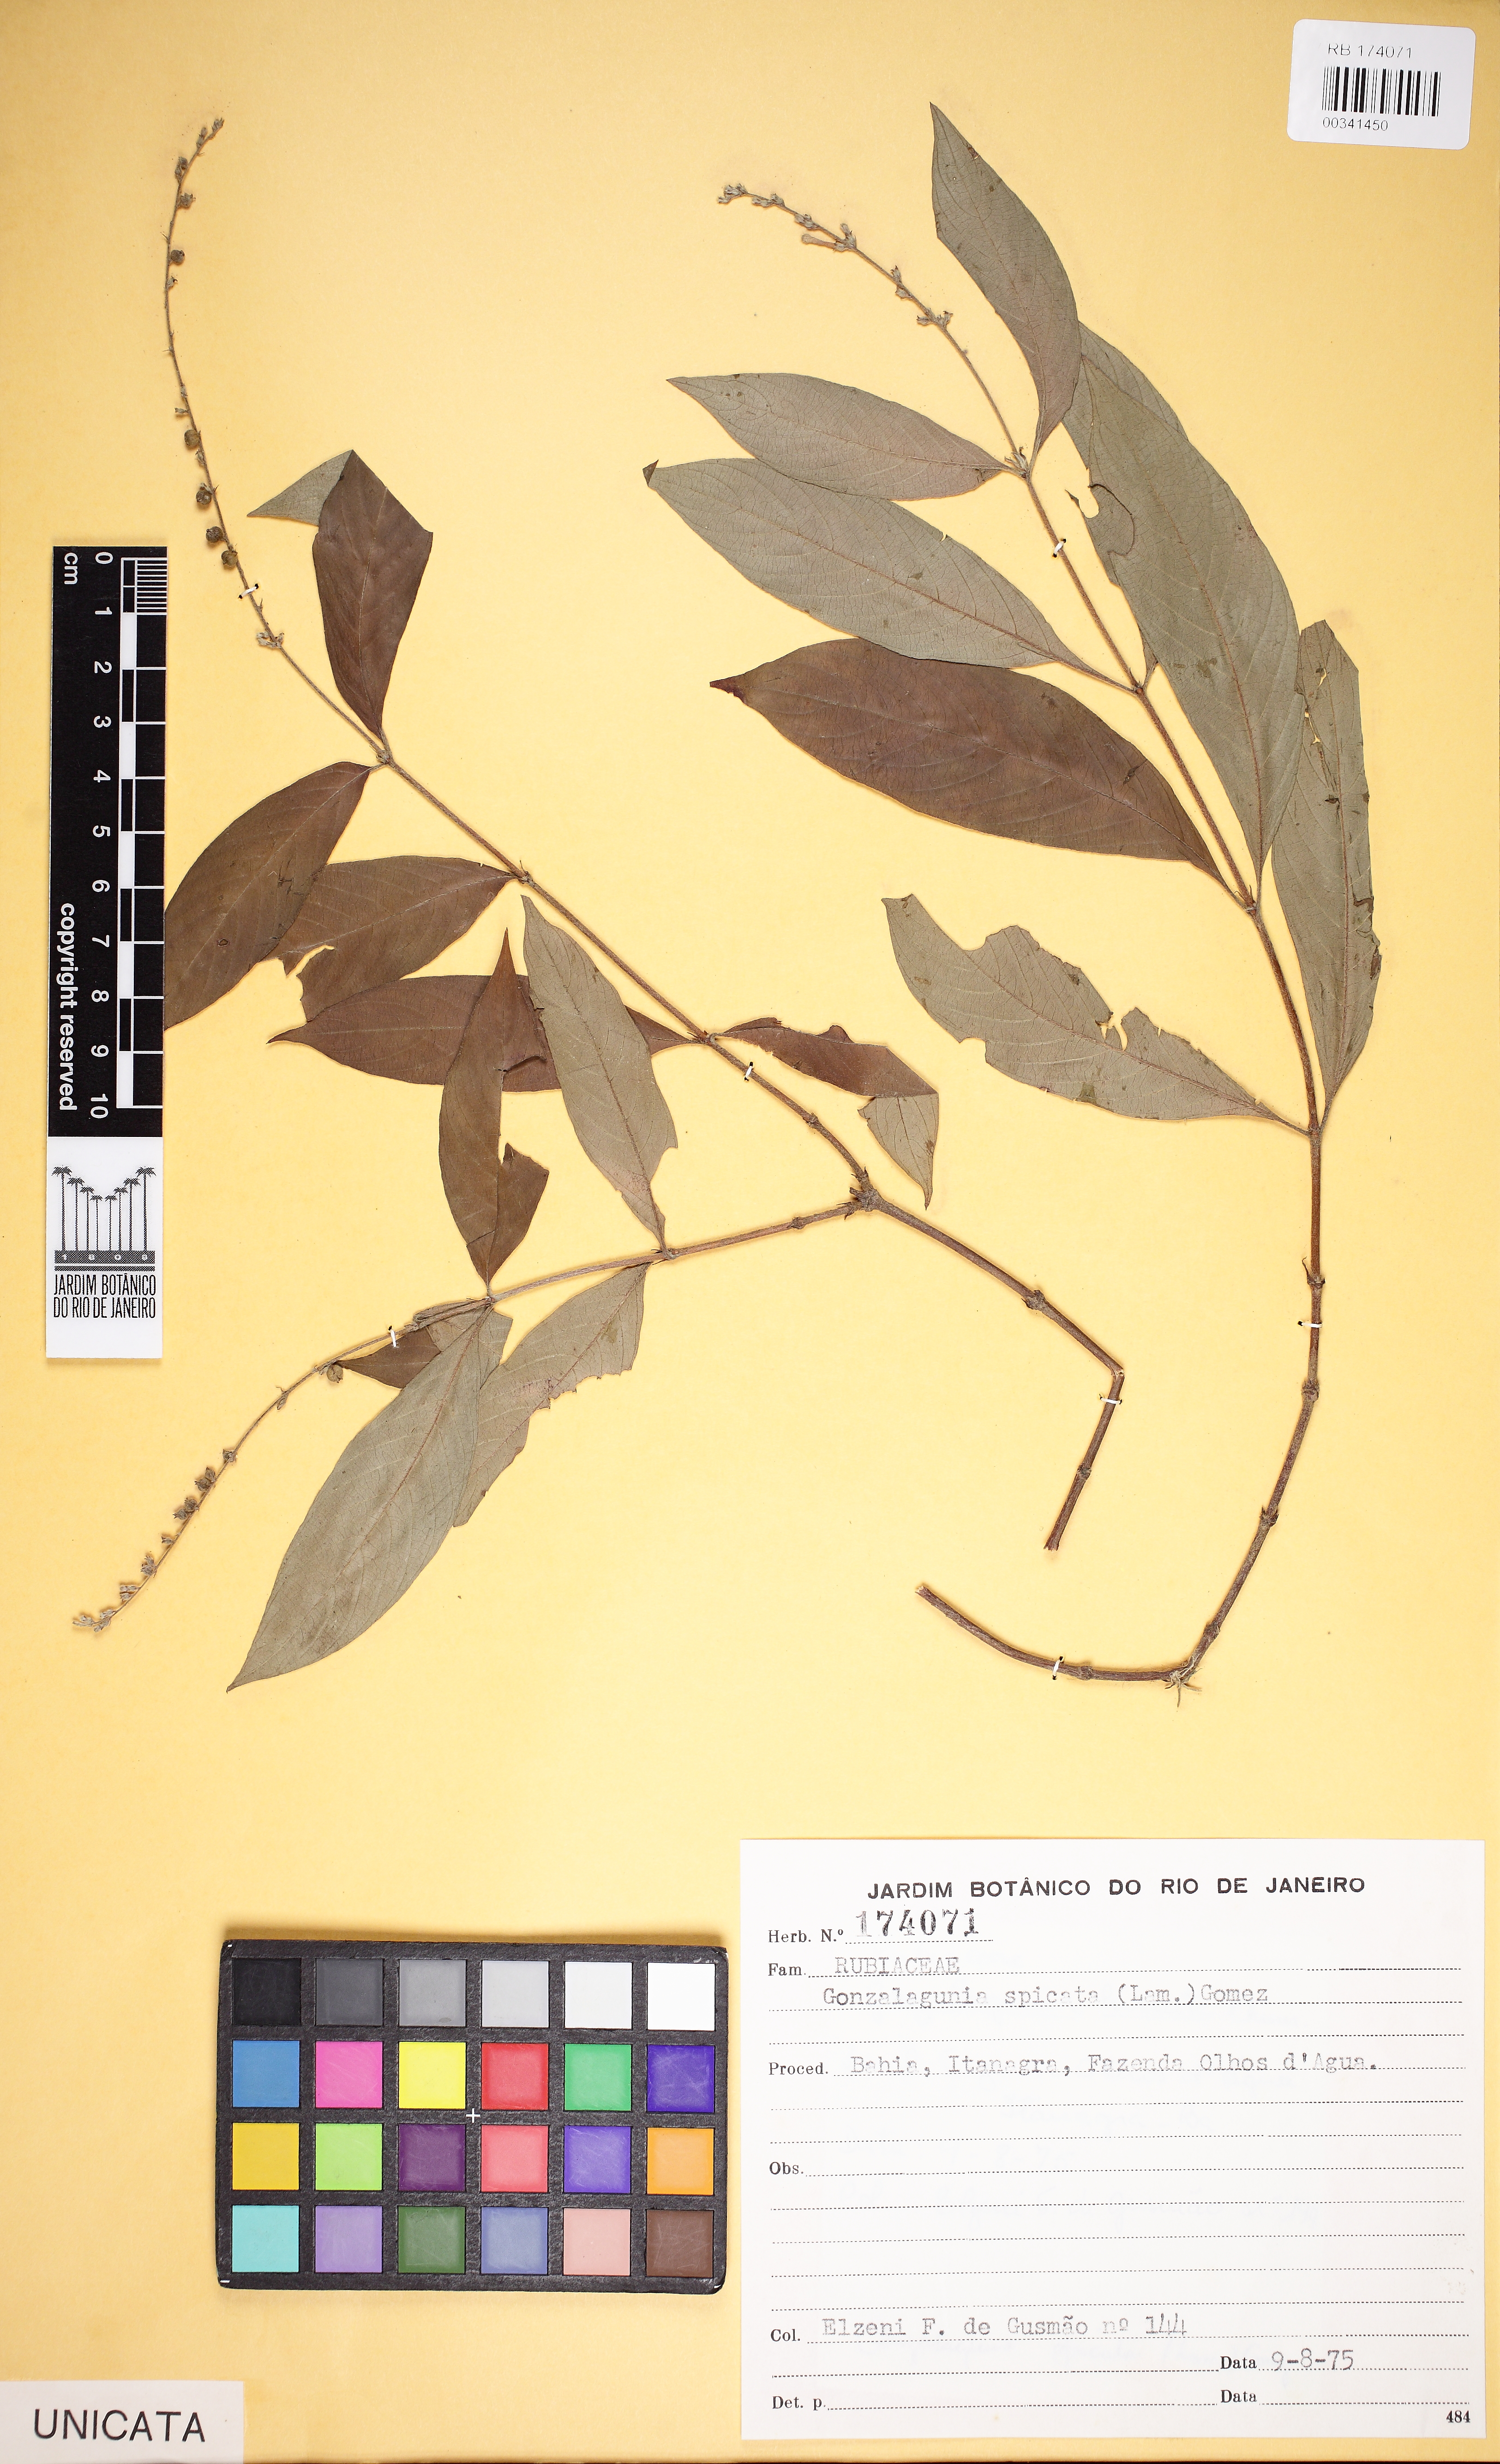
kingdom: Plantae
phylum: Tracheophyta
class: Magnoliopsida
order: Gentianales
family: Rubiaceae
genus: Gonzalagunia
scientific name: Gonzalagunia dicocca
